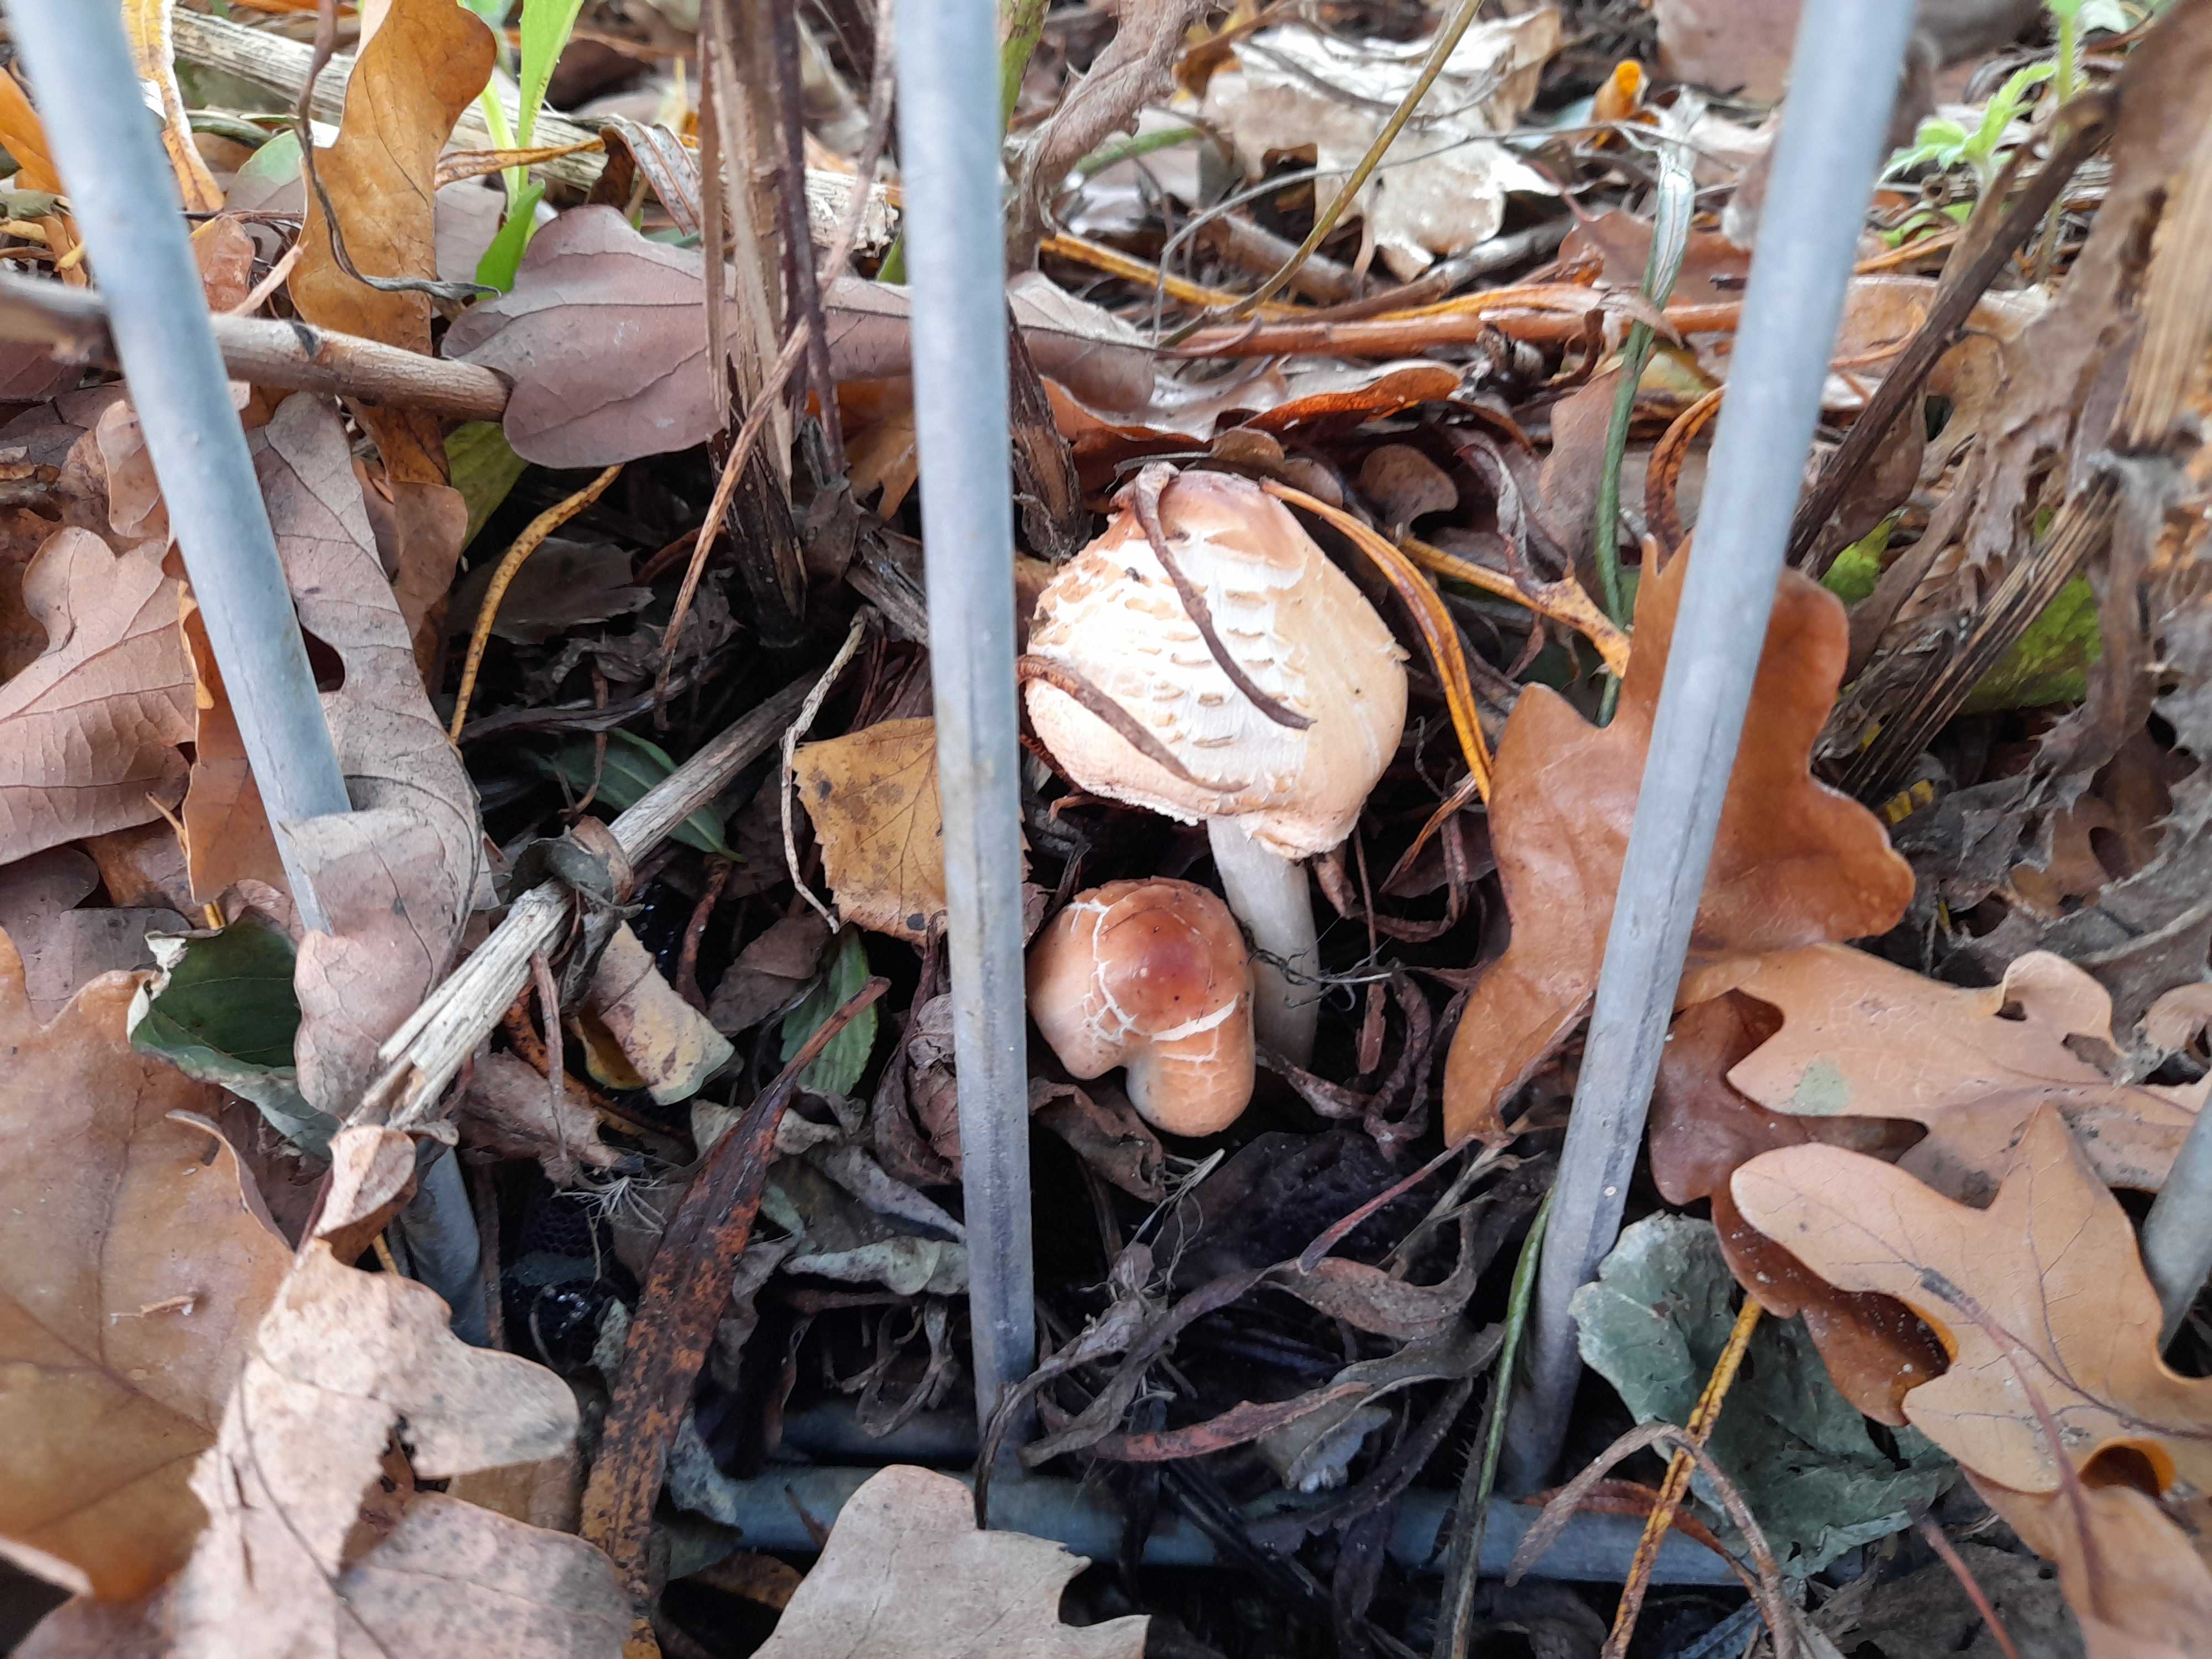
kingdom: Fungi
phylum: Basidiomycota
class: Agaricomycetes
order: Agaricales
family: Agaricaceae
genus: Lepiota
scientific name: Lepiota cristata
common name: stinkende parasolhat
